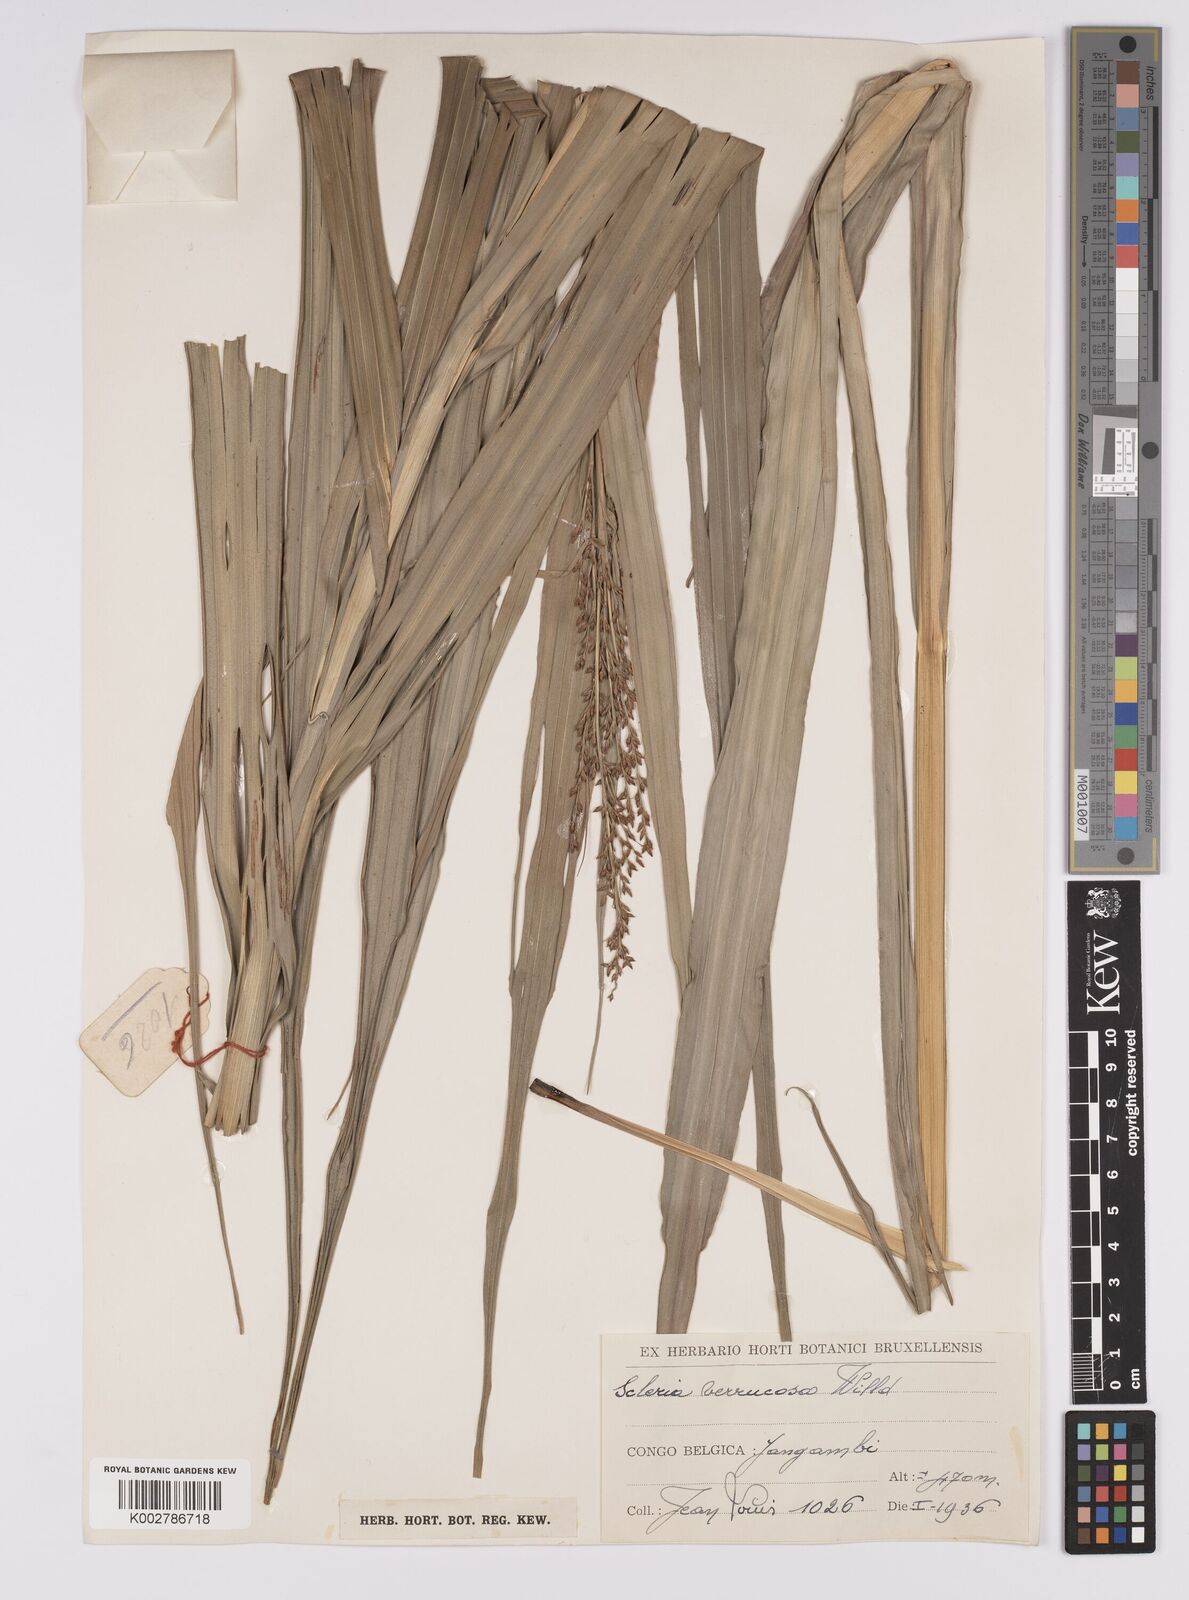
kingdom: Plantae
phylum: Tracheophyta
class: Liliopsida
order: Poales
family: Cyperaceae
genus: Scleria
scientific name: Scleria verrucosa
